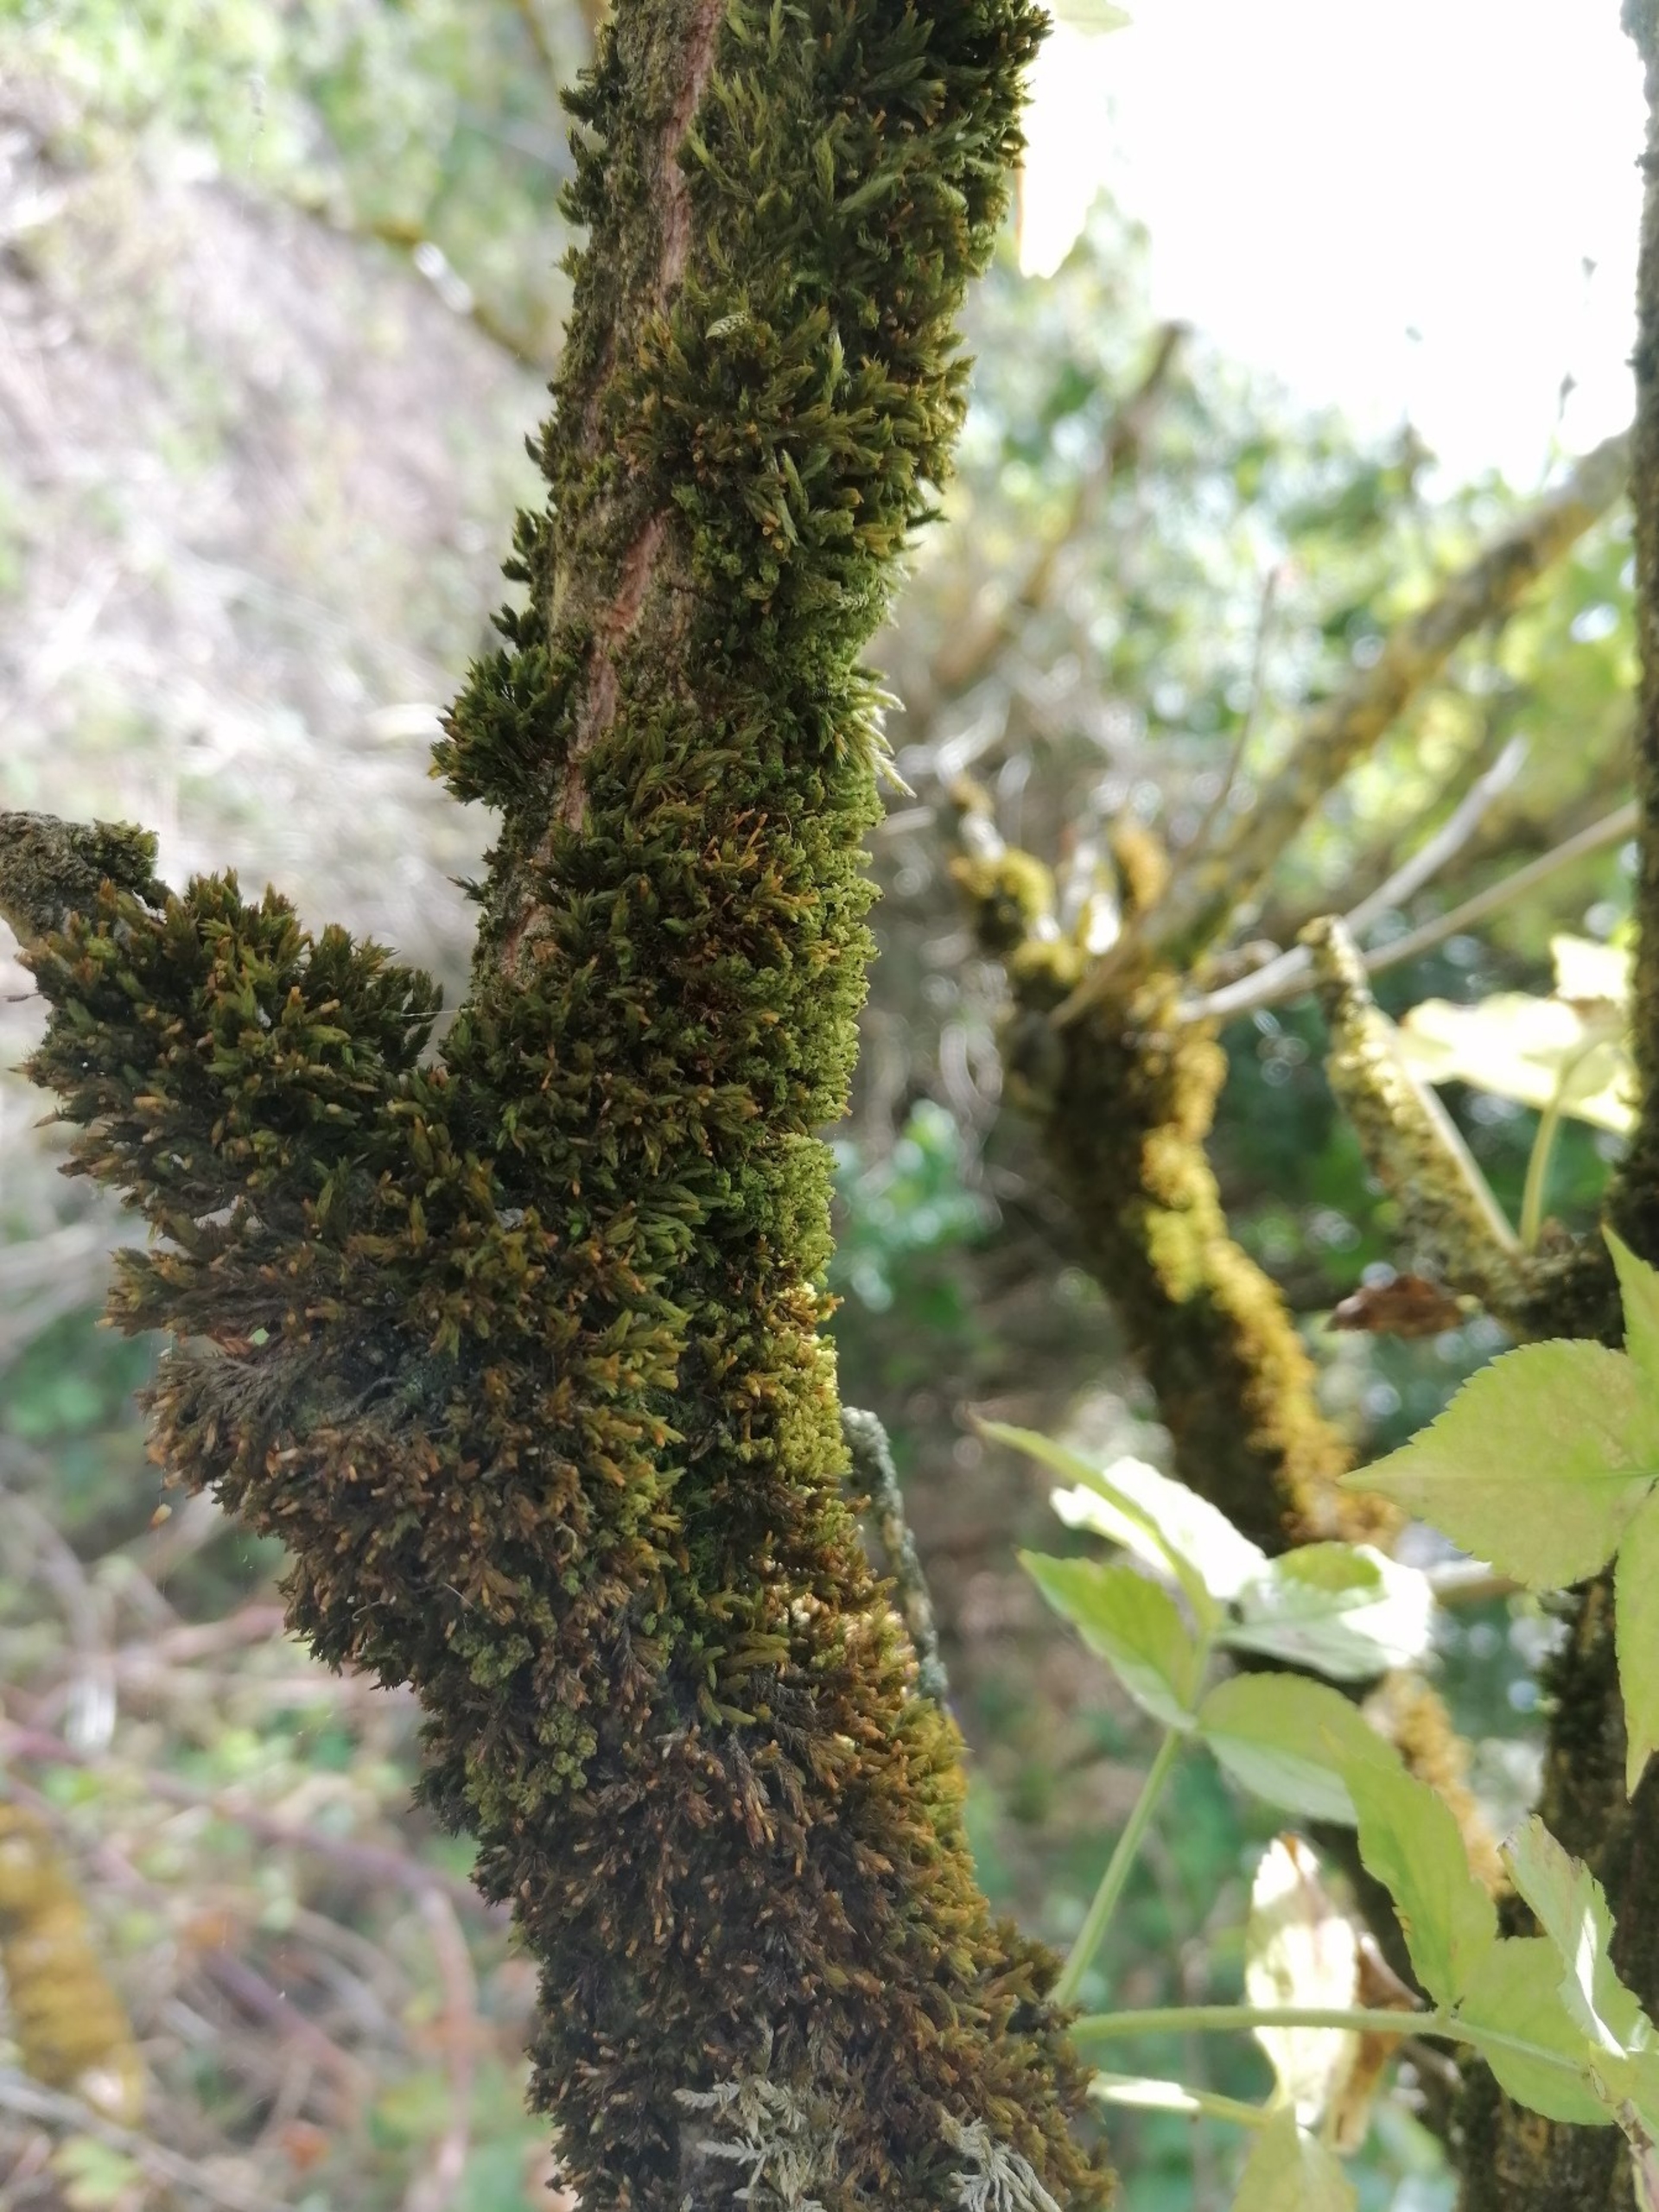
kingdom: Plantae
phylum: Bryophyta
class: Bryopsida
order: Orthotrichales
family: Orthotrichaceae
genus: Plenogemma
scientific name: Plenogemma phyllantha
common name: Stor låddenhætte
